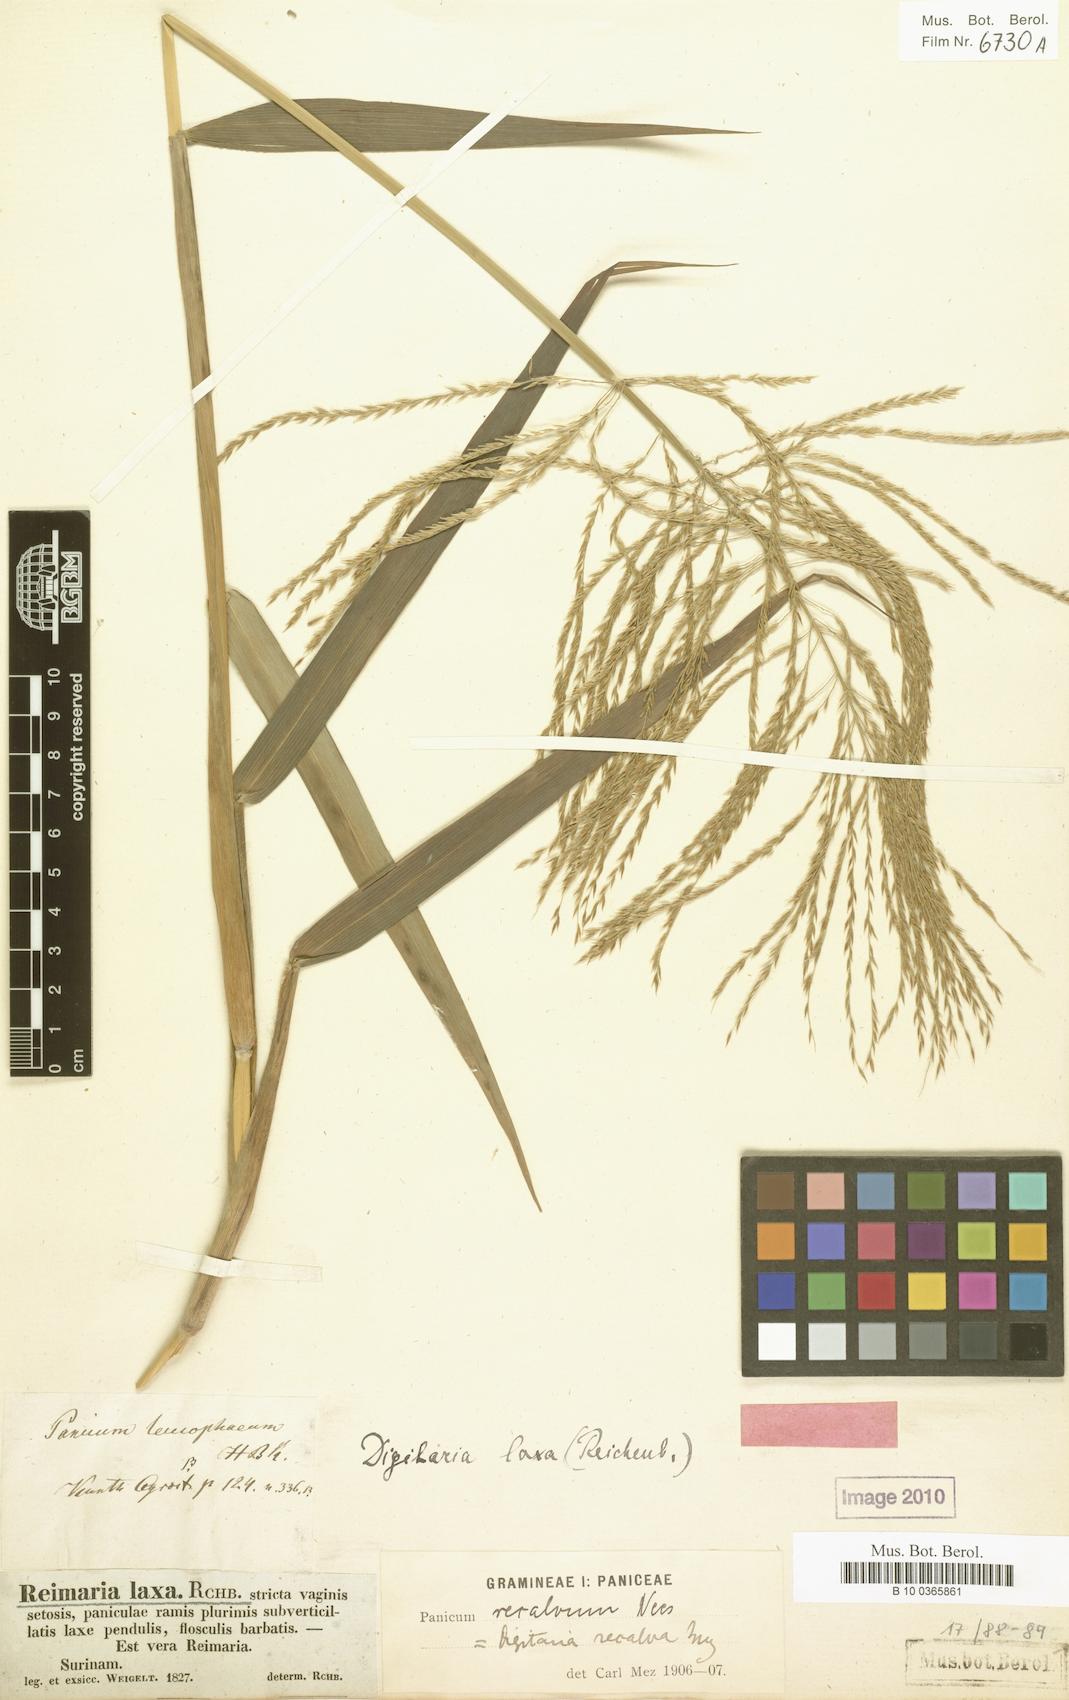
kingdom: Plantae
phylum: Tracheophyta
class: Liliopsida
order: Poales
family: Poaceae
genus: Digitaria
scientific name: Digitaria laxa
